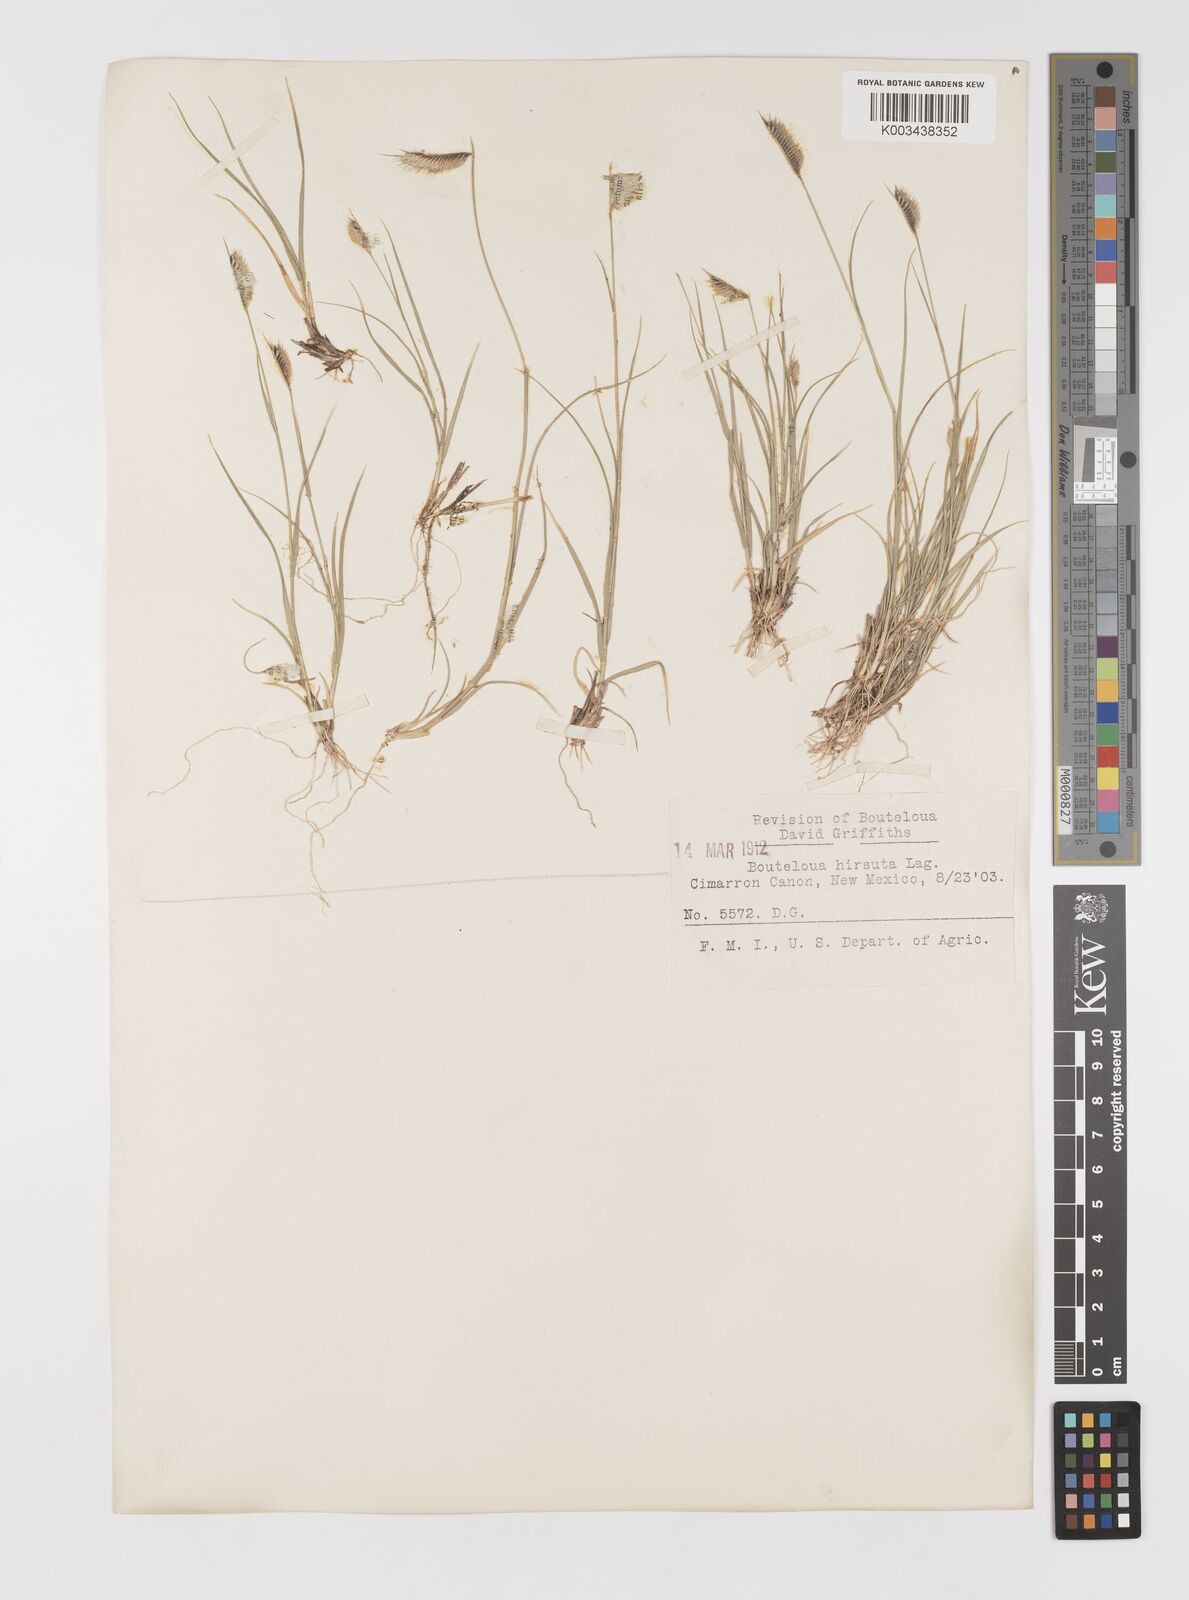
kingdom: Plantae
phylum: Tracheophyta
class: Liliopsida
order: Poales
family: Poaceae
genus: Bouteloua
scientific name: Bouteloua hirsuta
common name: Hairy grama
